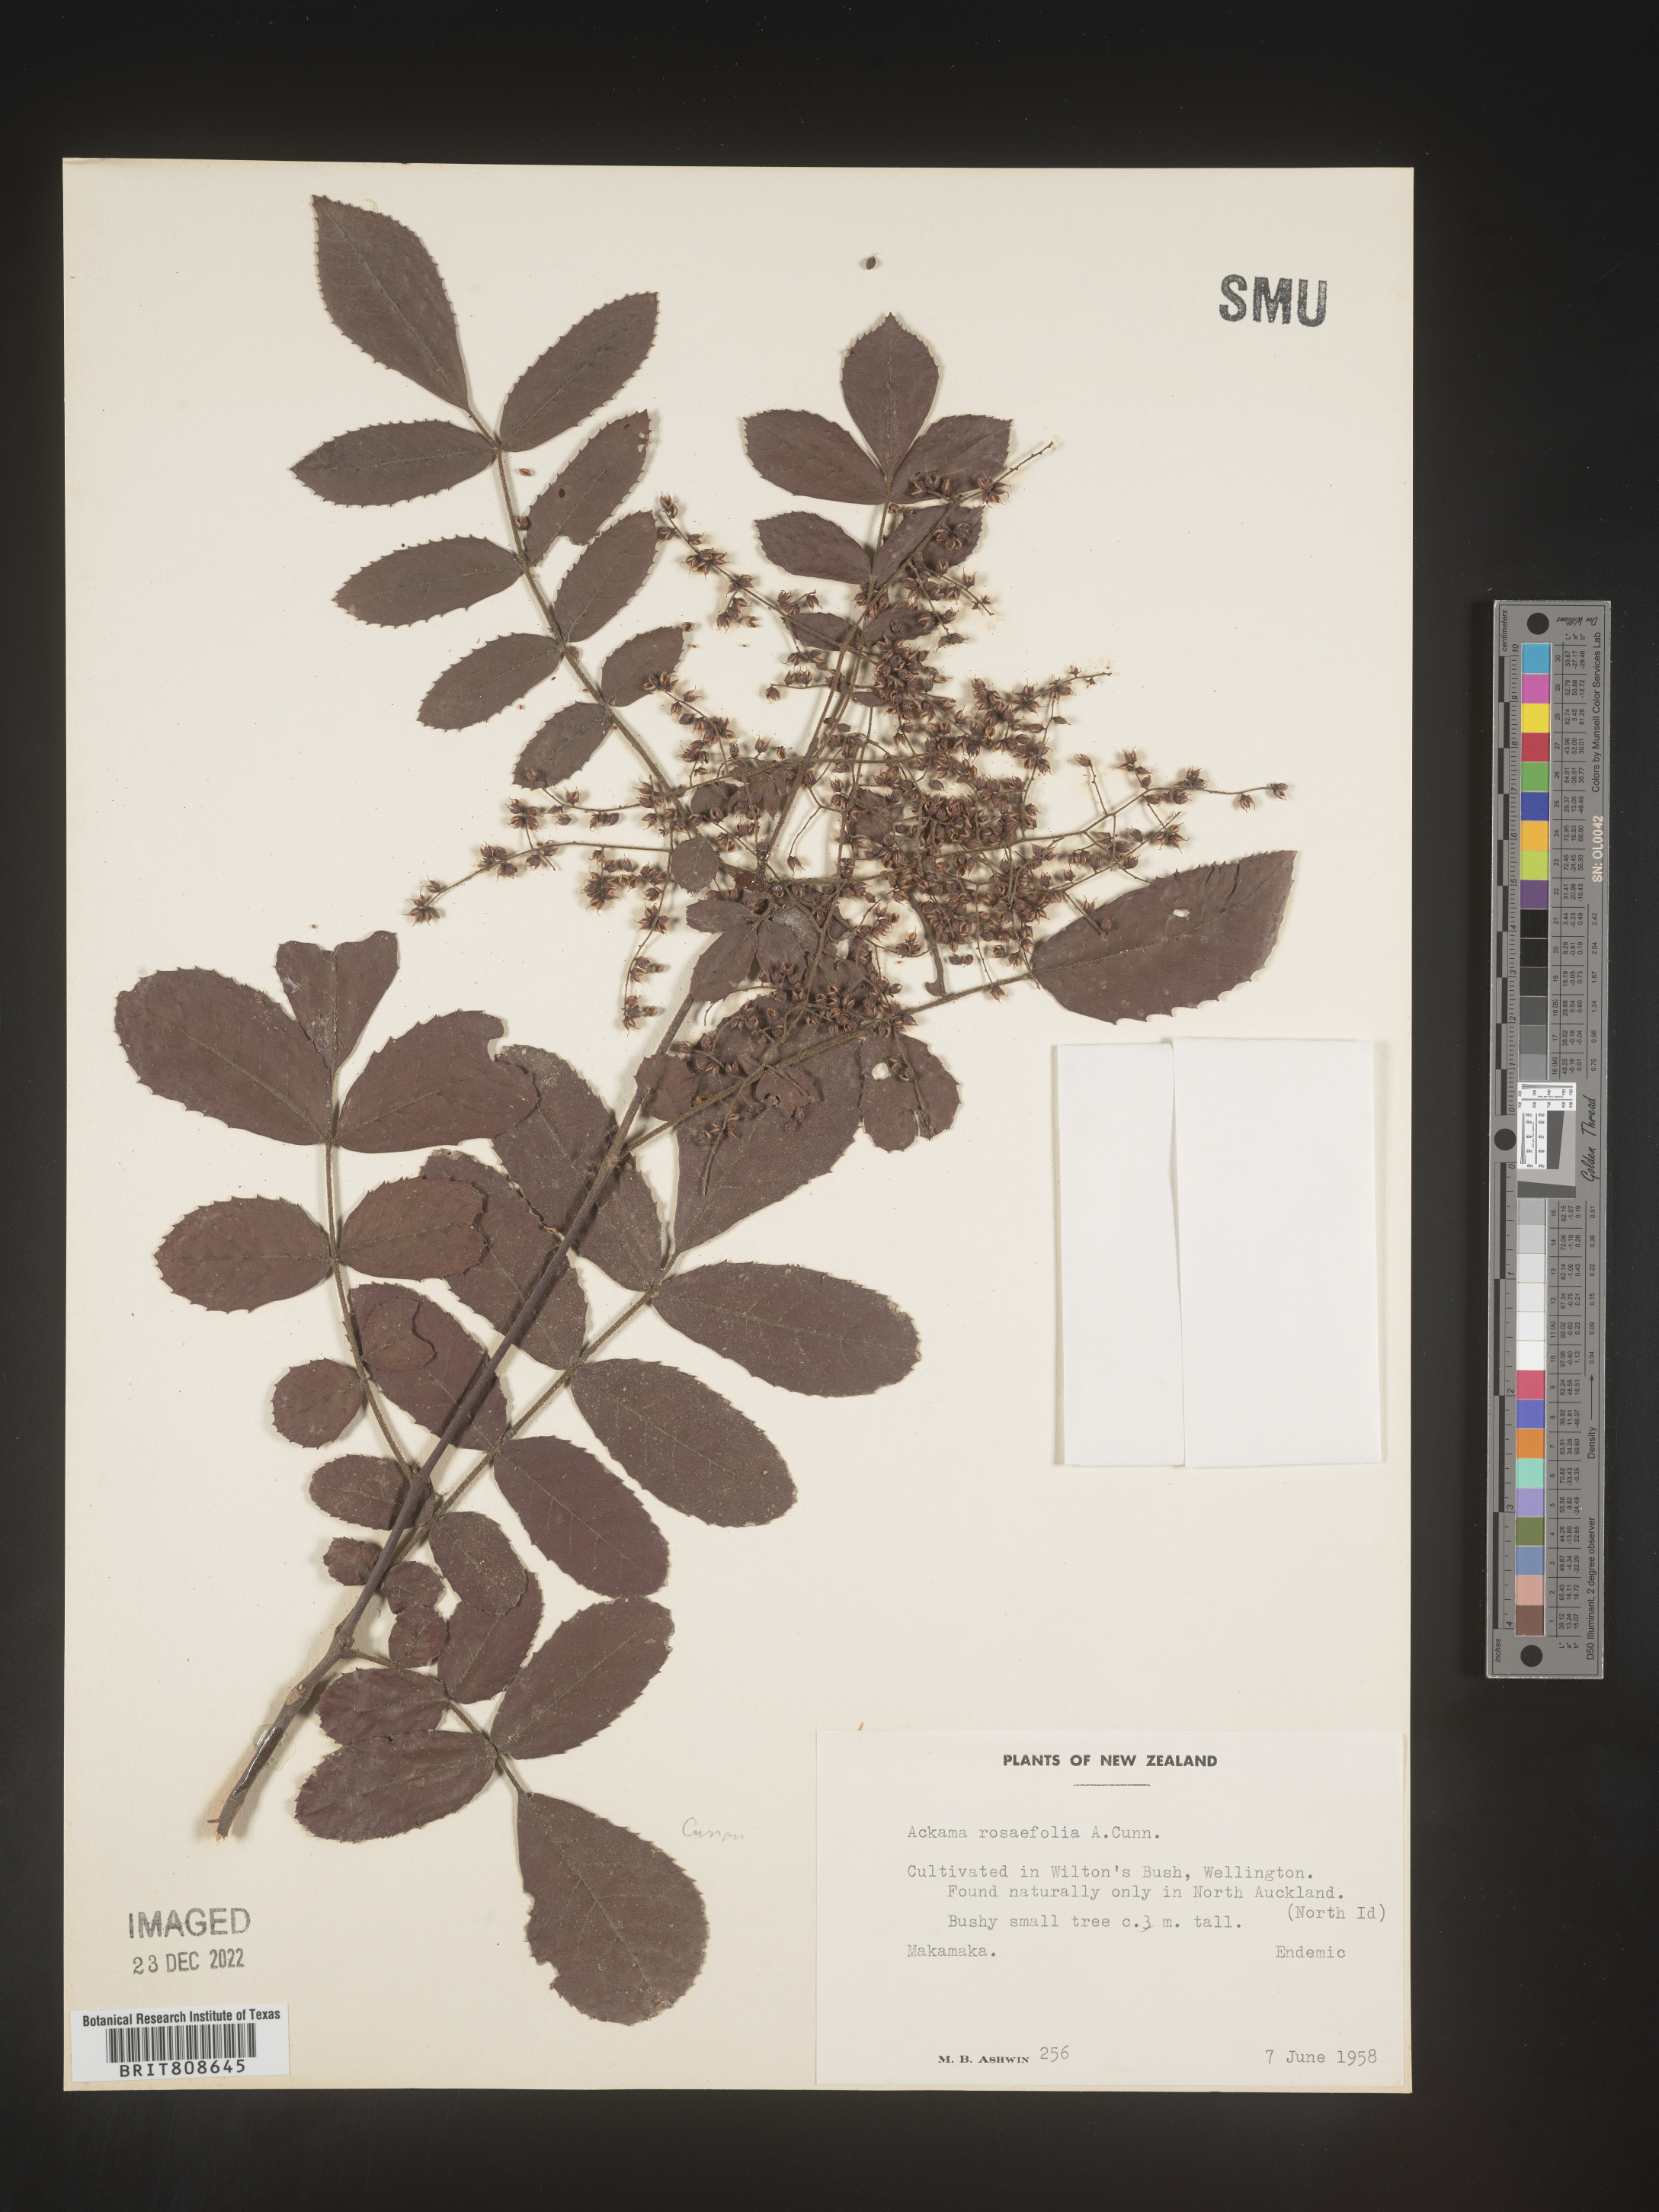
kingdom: Plantae
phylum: Tracheophyta
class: Magnoliopsida
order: Oxalidales
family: Cunoniaceae
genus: Ackama
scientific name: Ackama rosifolia
